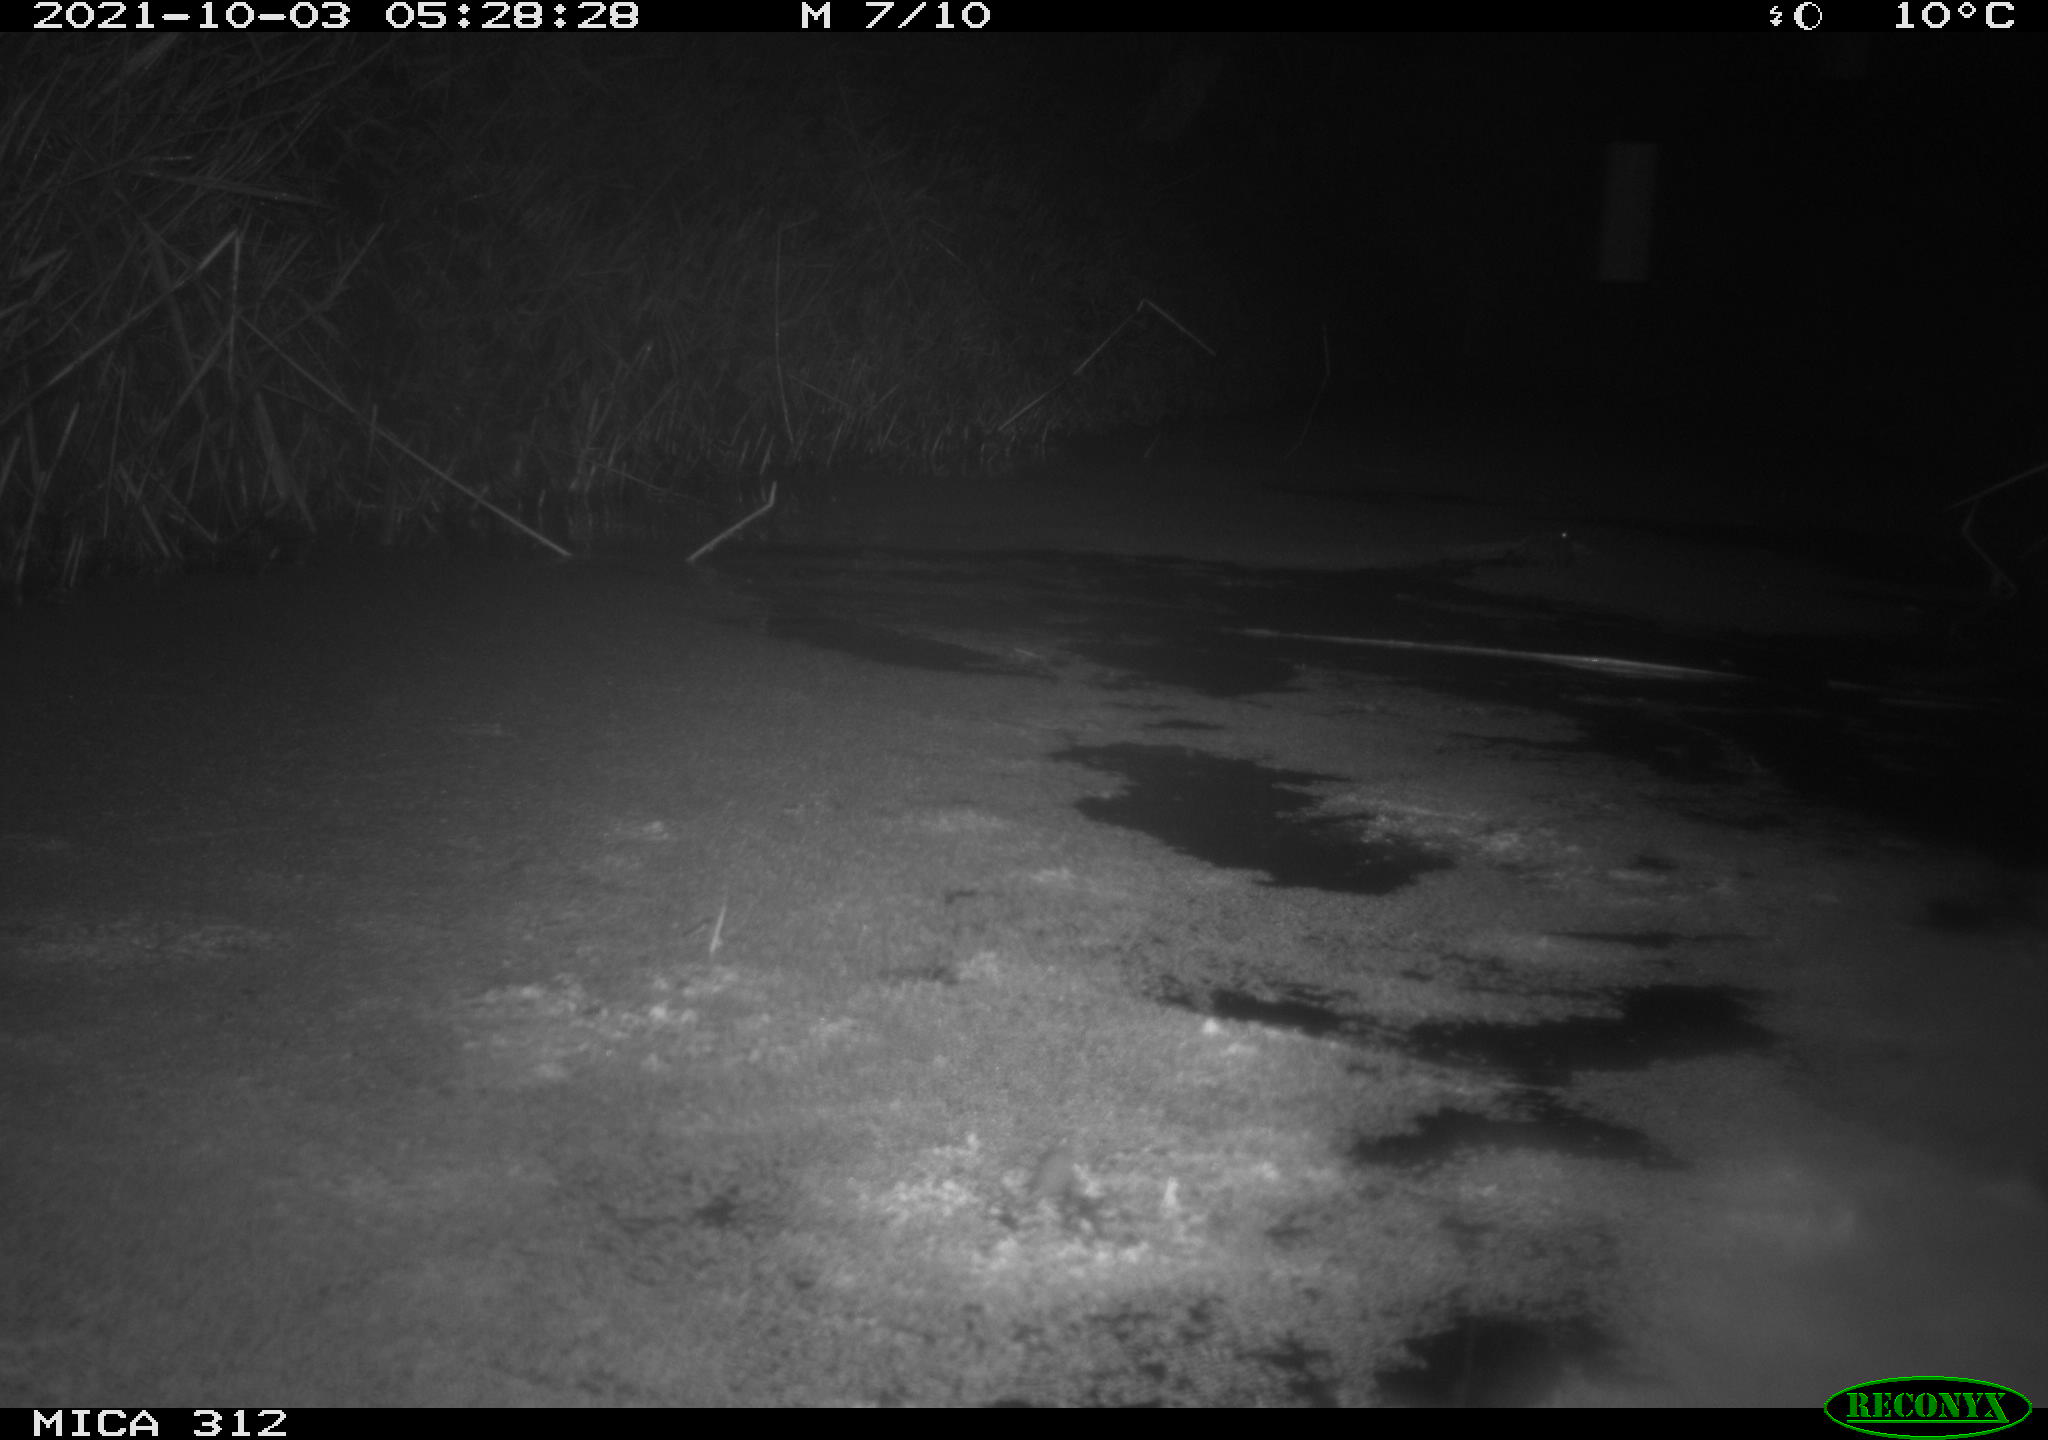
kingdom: Animalia
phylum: Chordata
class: Mammalia
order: Rodentia
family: Cricetidae
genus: Ondatra
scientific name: Ondatra zibethicus
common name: Muskrat
